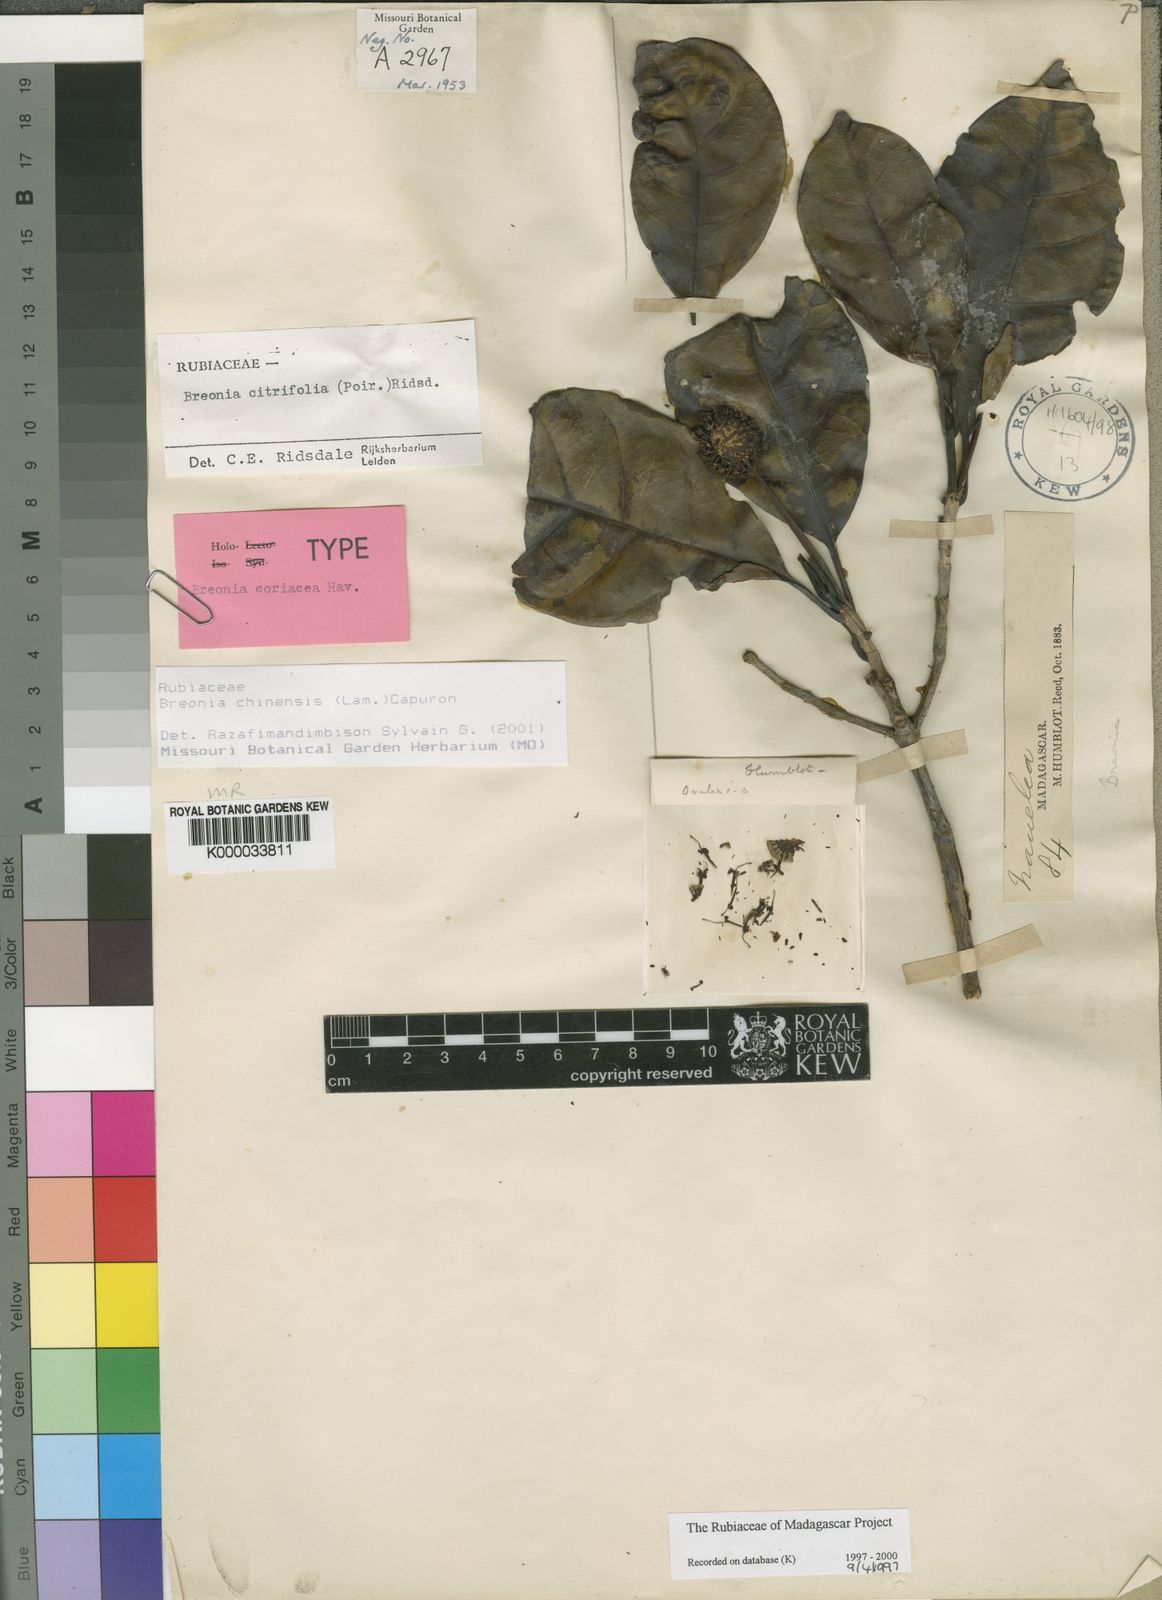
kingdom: Plantae
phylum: Tracheophyta
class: Magnoliopsida
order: Gentianales
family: Rubiaceae
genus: Breonia
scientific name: Breonia chinensis
